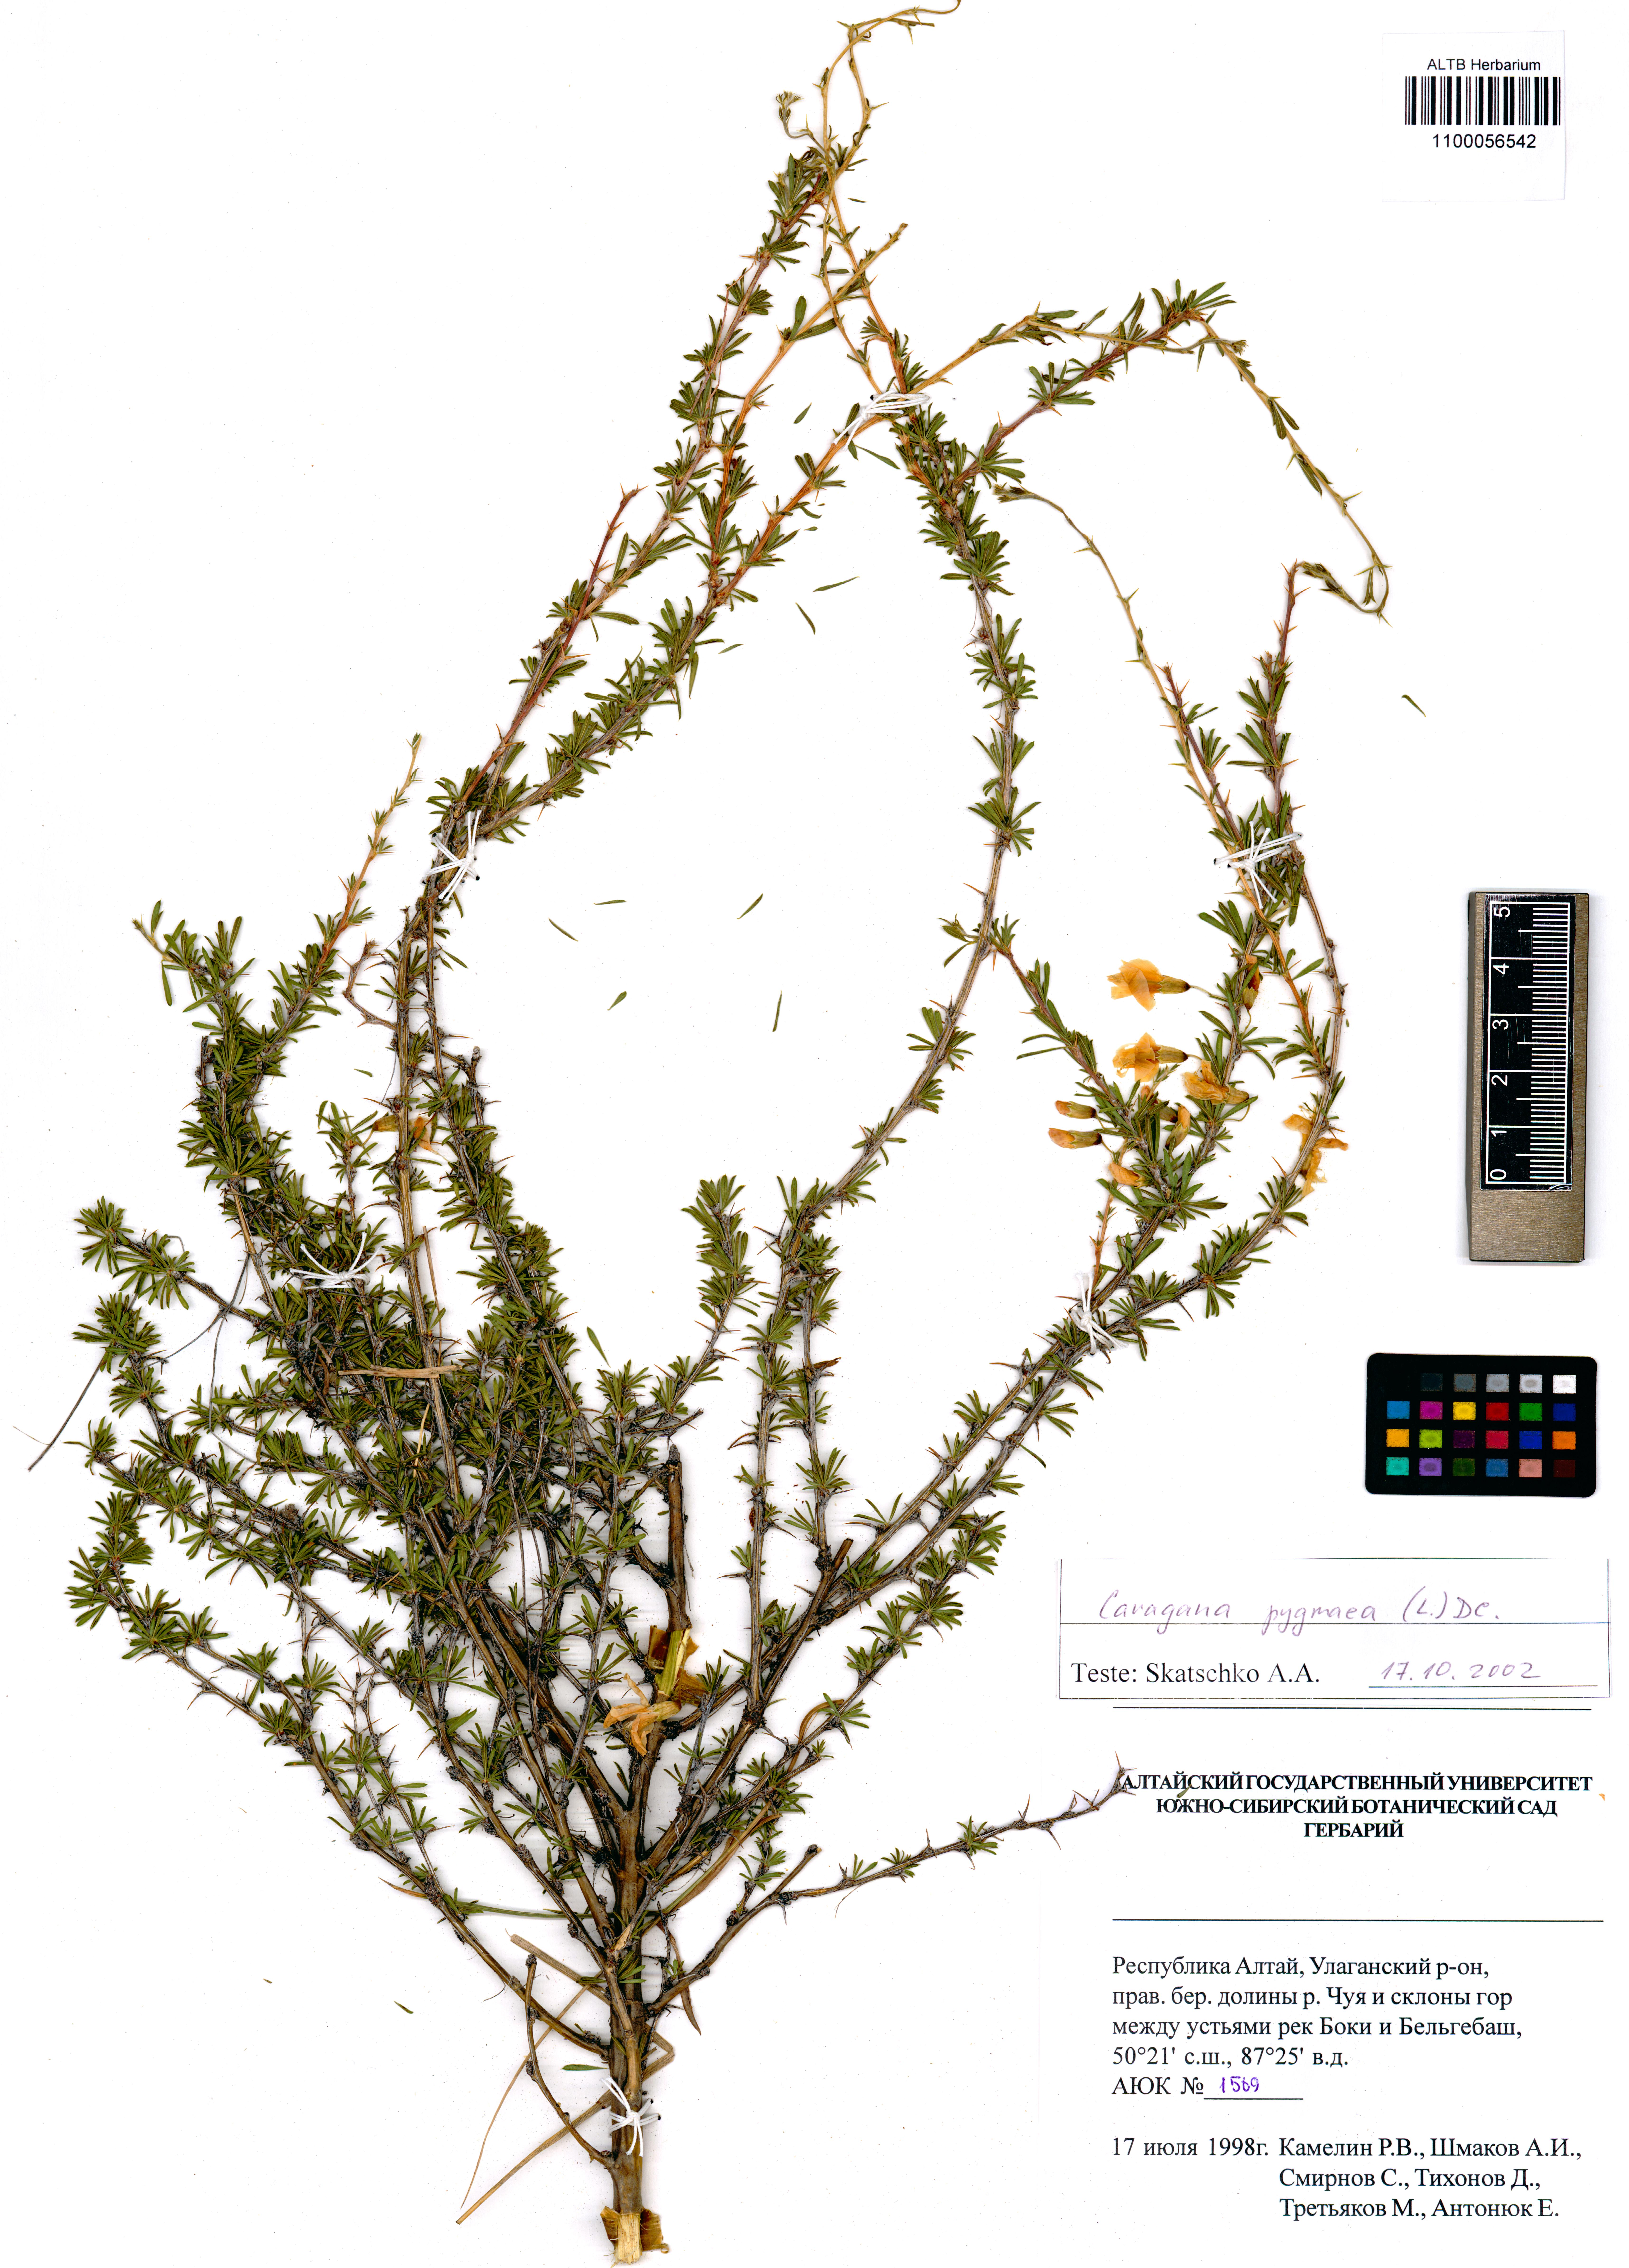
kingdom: Plantae
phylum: Tracheophyta
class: Magnoliopsida
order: Fabales
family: Fabaceae
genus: Caragana
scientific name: Caragana pygmaea
